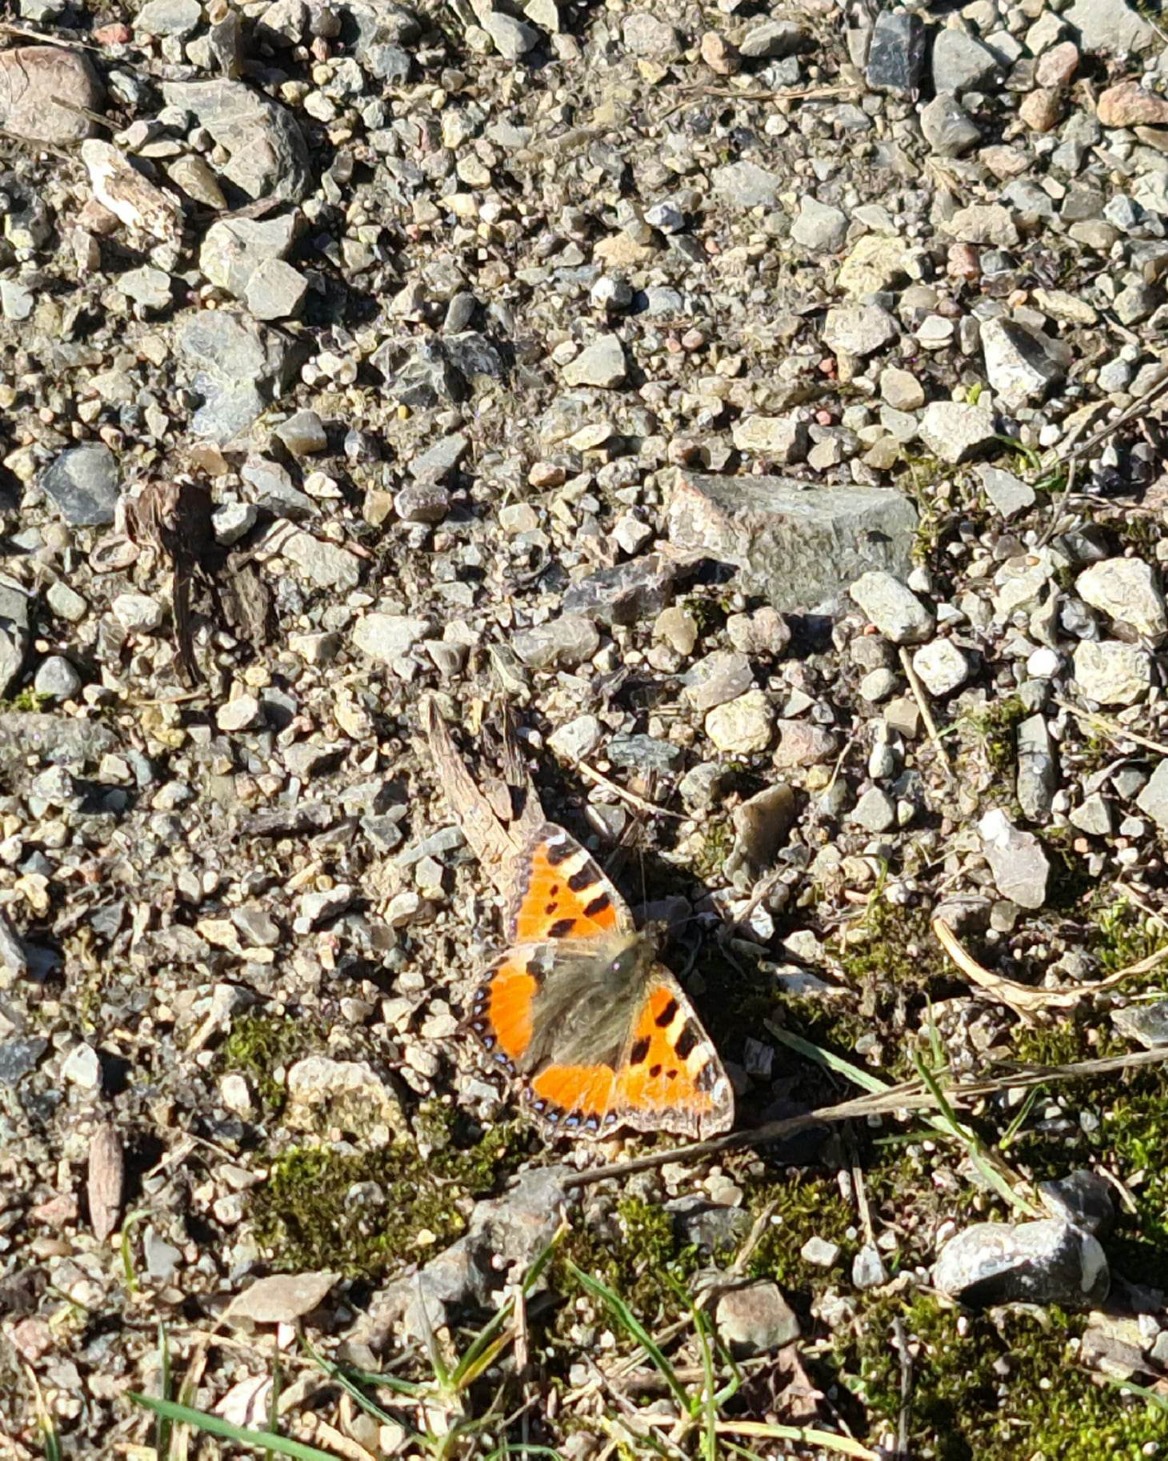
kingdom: Animalia
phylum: Arthropoda
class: Insecta
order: Lepidoptera
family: Nymphalidae
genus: Aglais
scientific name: Aglais urticae
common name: Nældens takvinge
